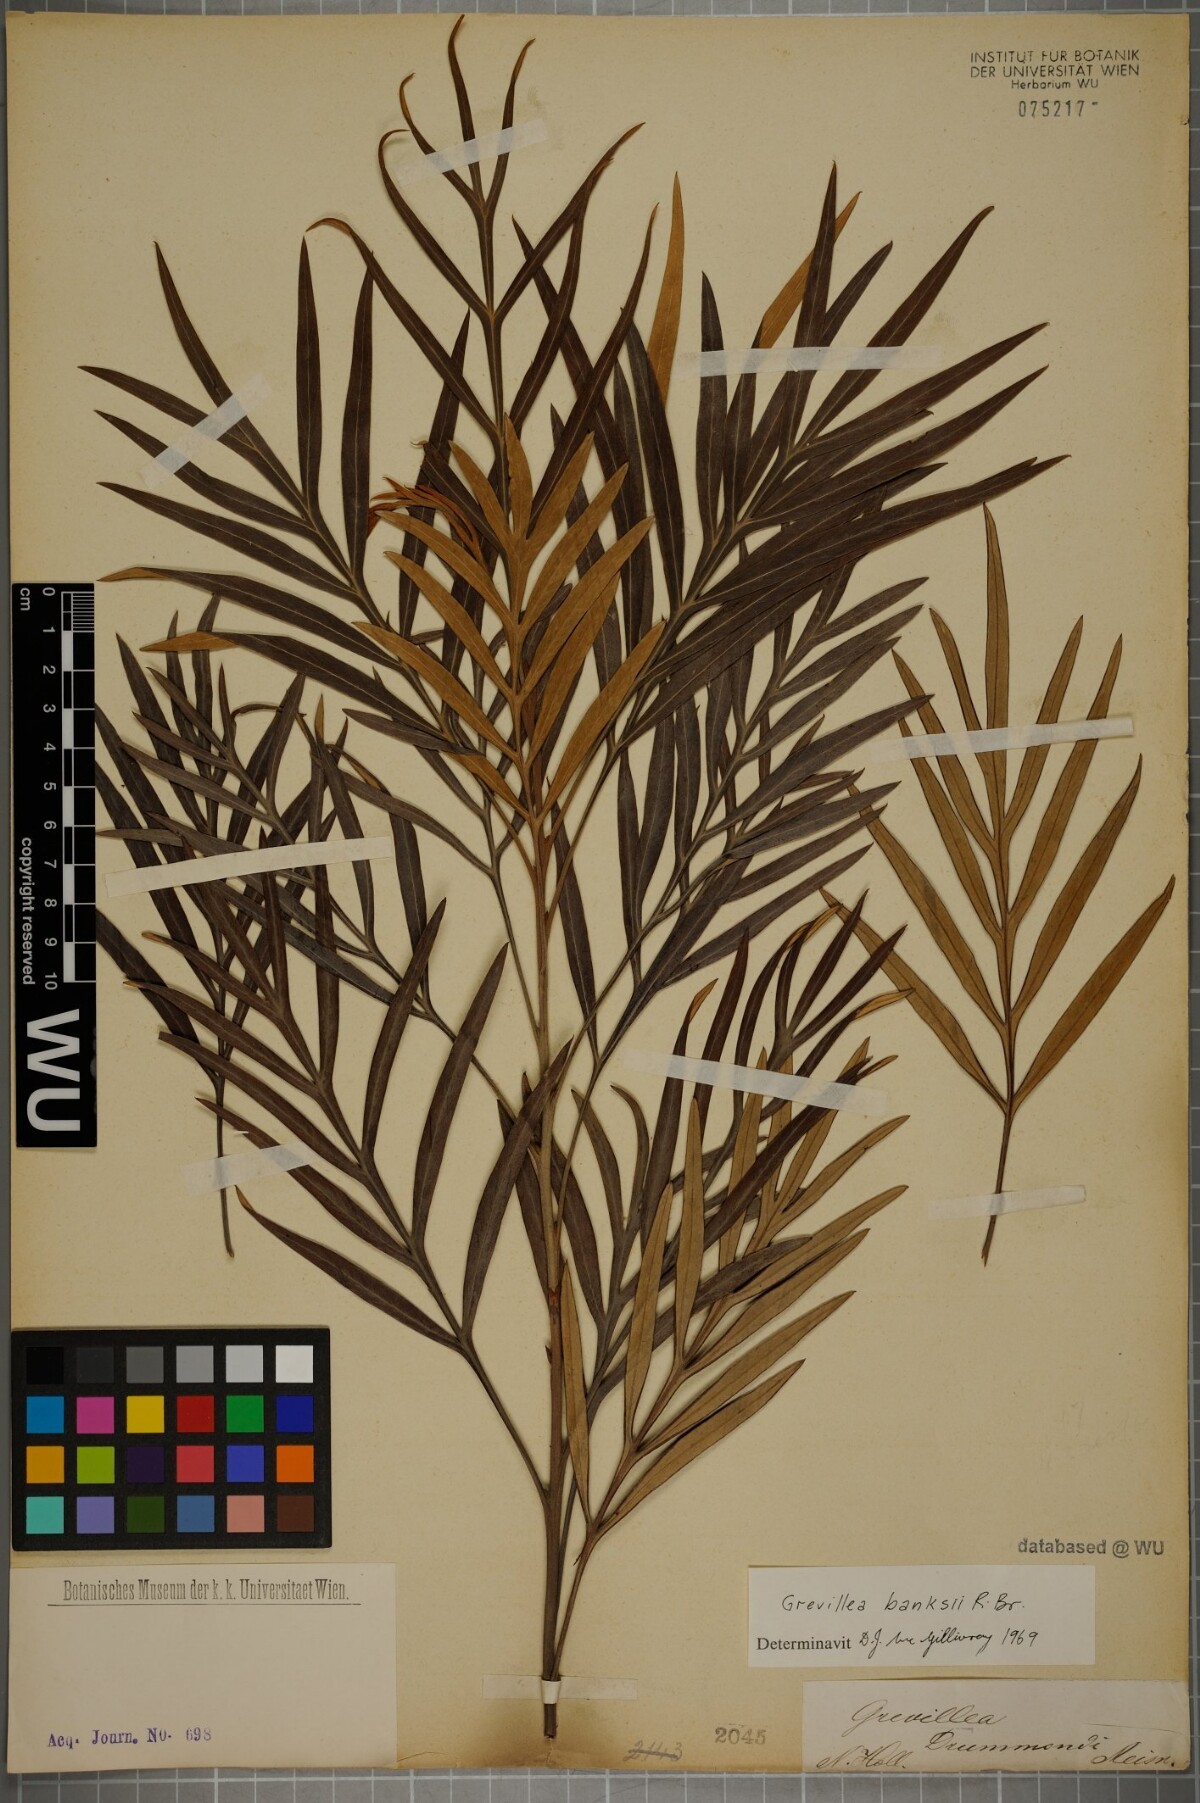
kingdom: Plantae
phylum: Tracheophyta
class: Magnoliopsida
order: Proteales
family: Proteaceae
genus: Grevillea
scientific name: Grevillea banksii
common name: Kahili flower
